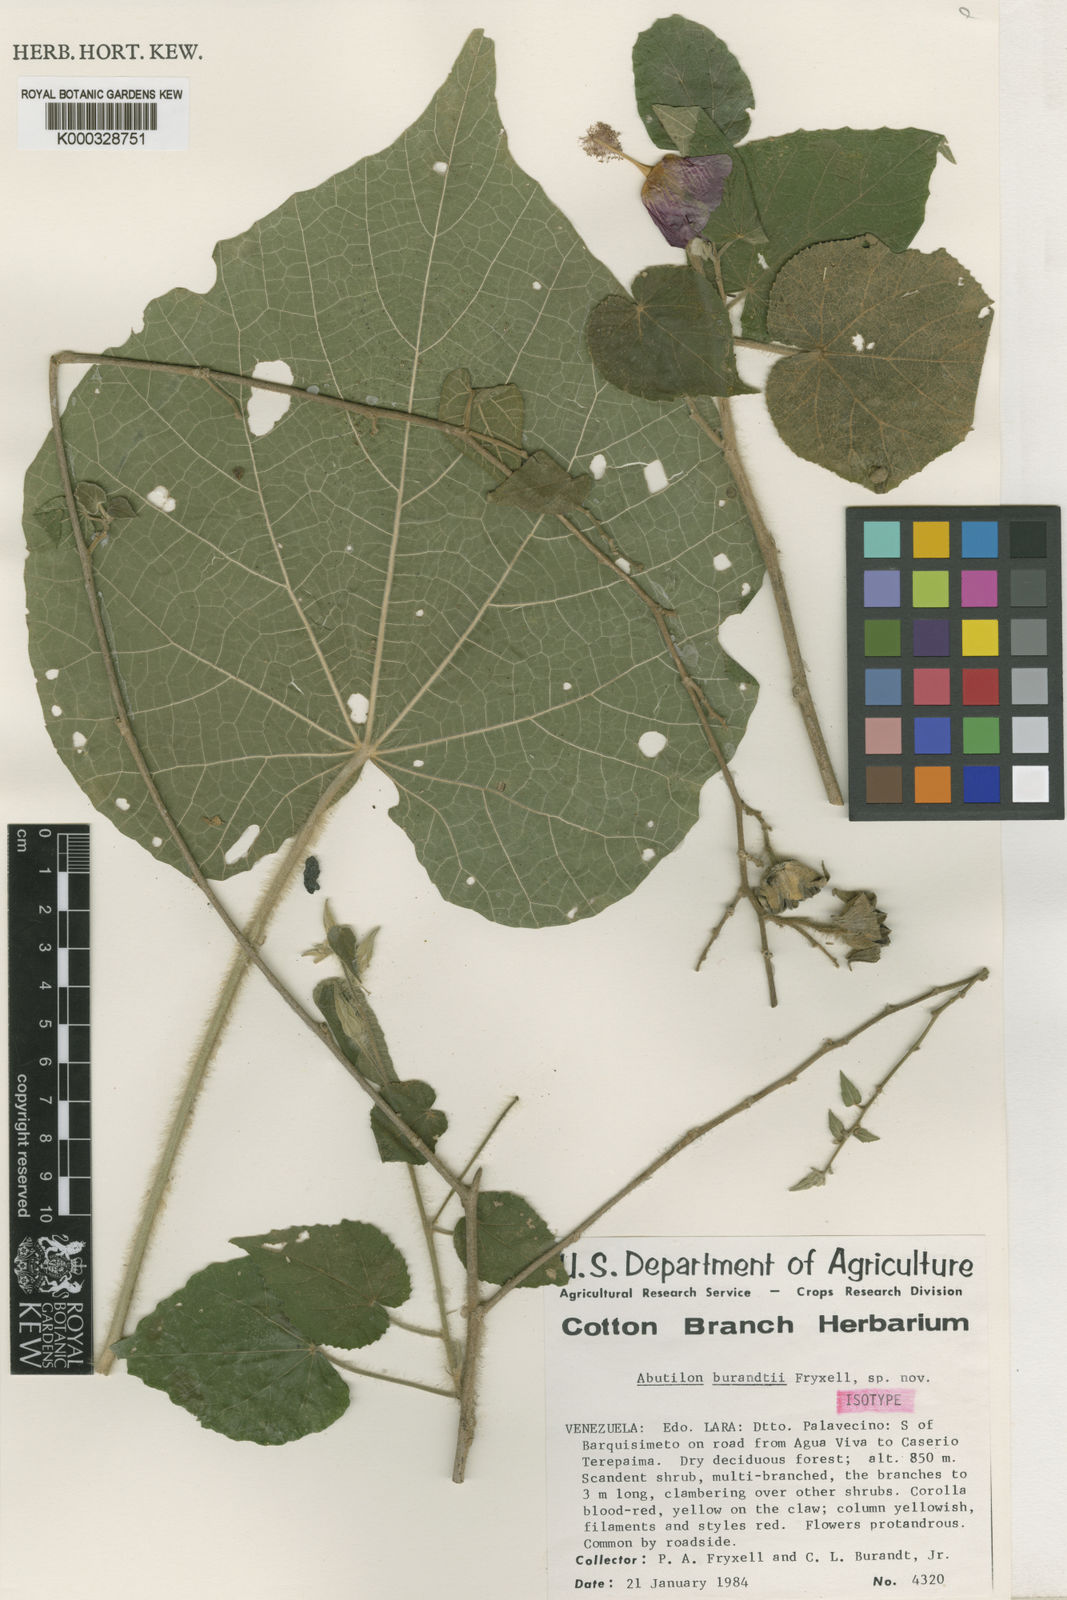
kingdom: Plantae
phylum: Tracheophyta
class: Magnoliopsida
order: Malvales
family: Malvaceae
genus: Abutilon
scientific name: Abutilon burandtii
